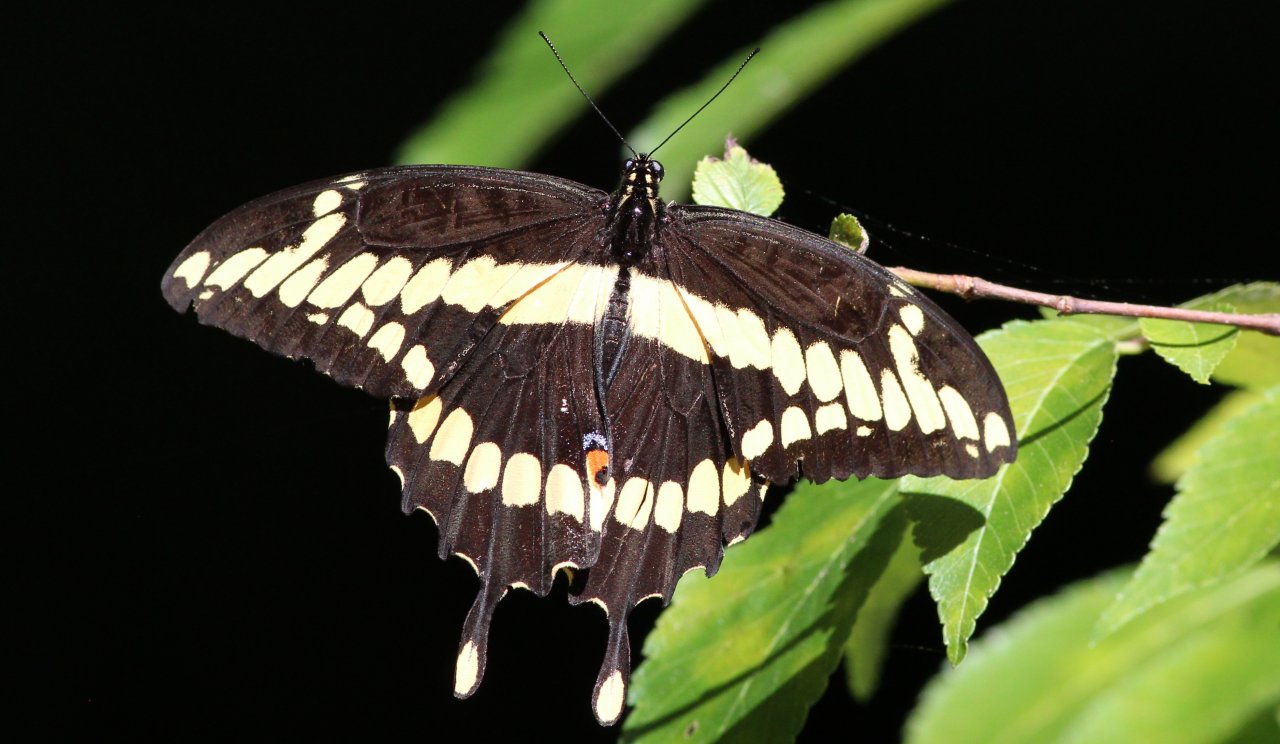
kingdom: Animalia
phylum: Arthropoda
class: Insecta
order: Lepidoptera
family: Papilionidae
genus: Papilio
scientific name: Papilio cresphontes
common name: Eastern Giant Swallowtail
